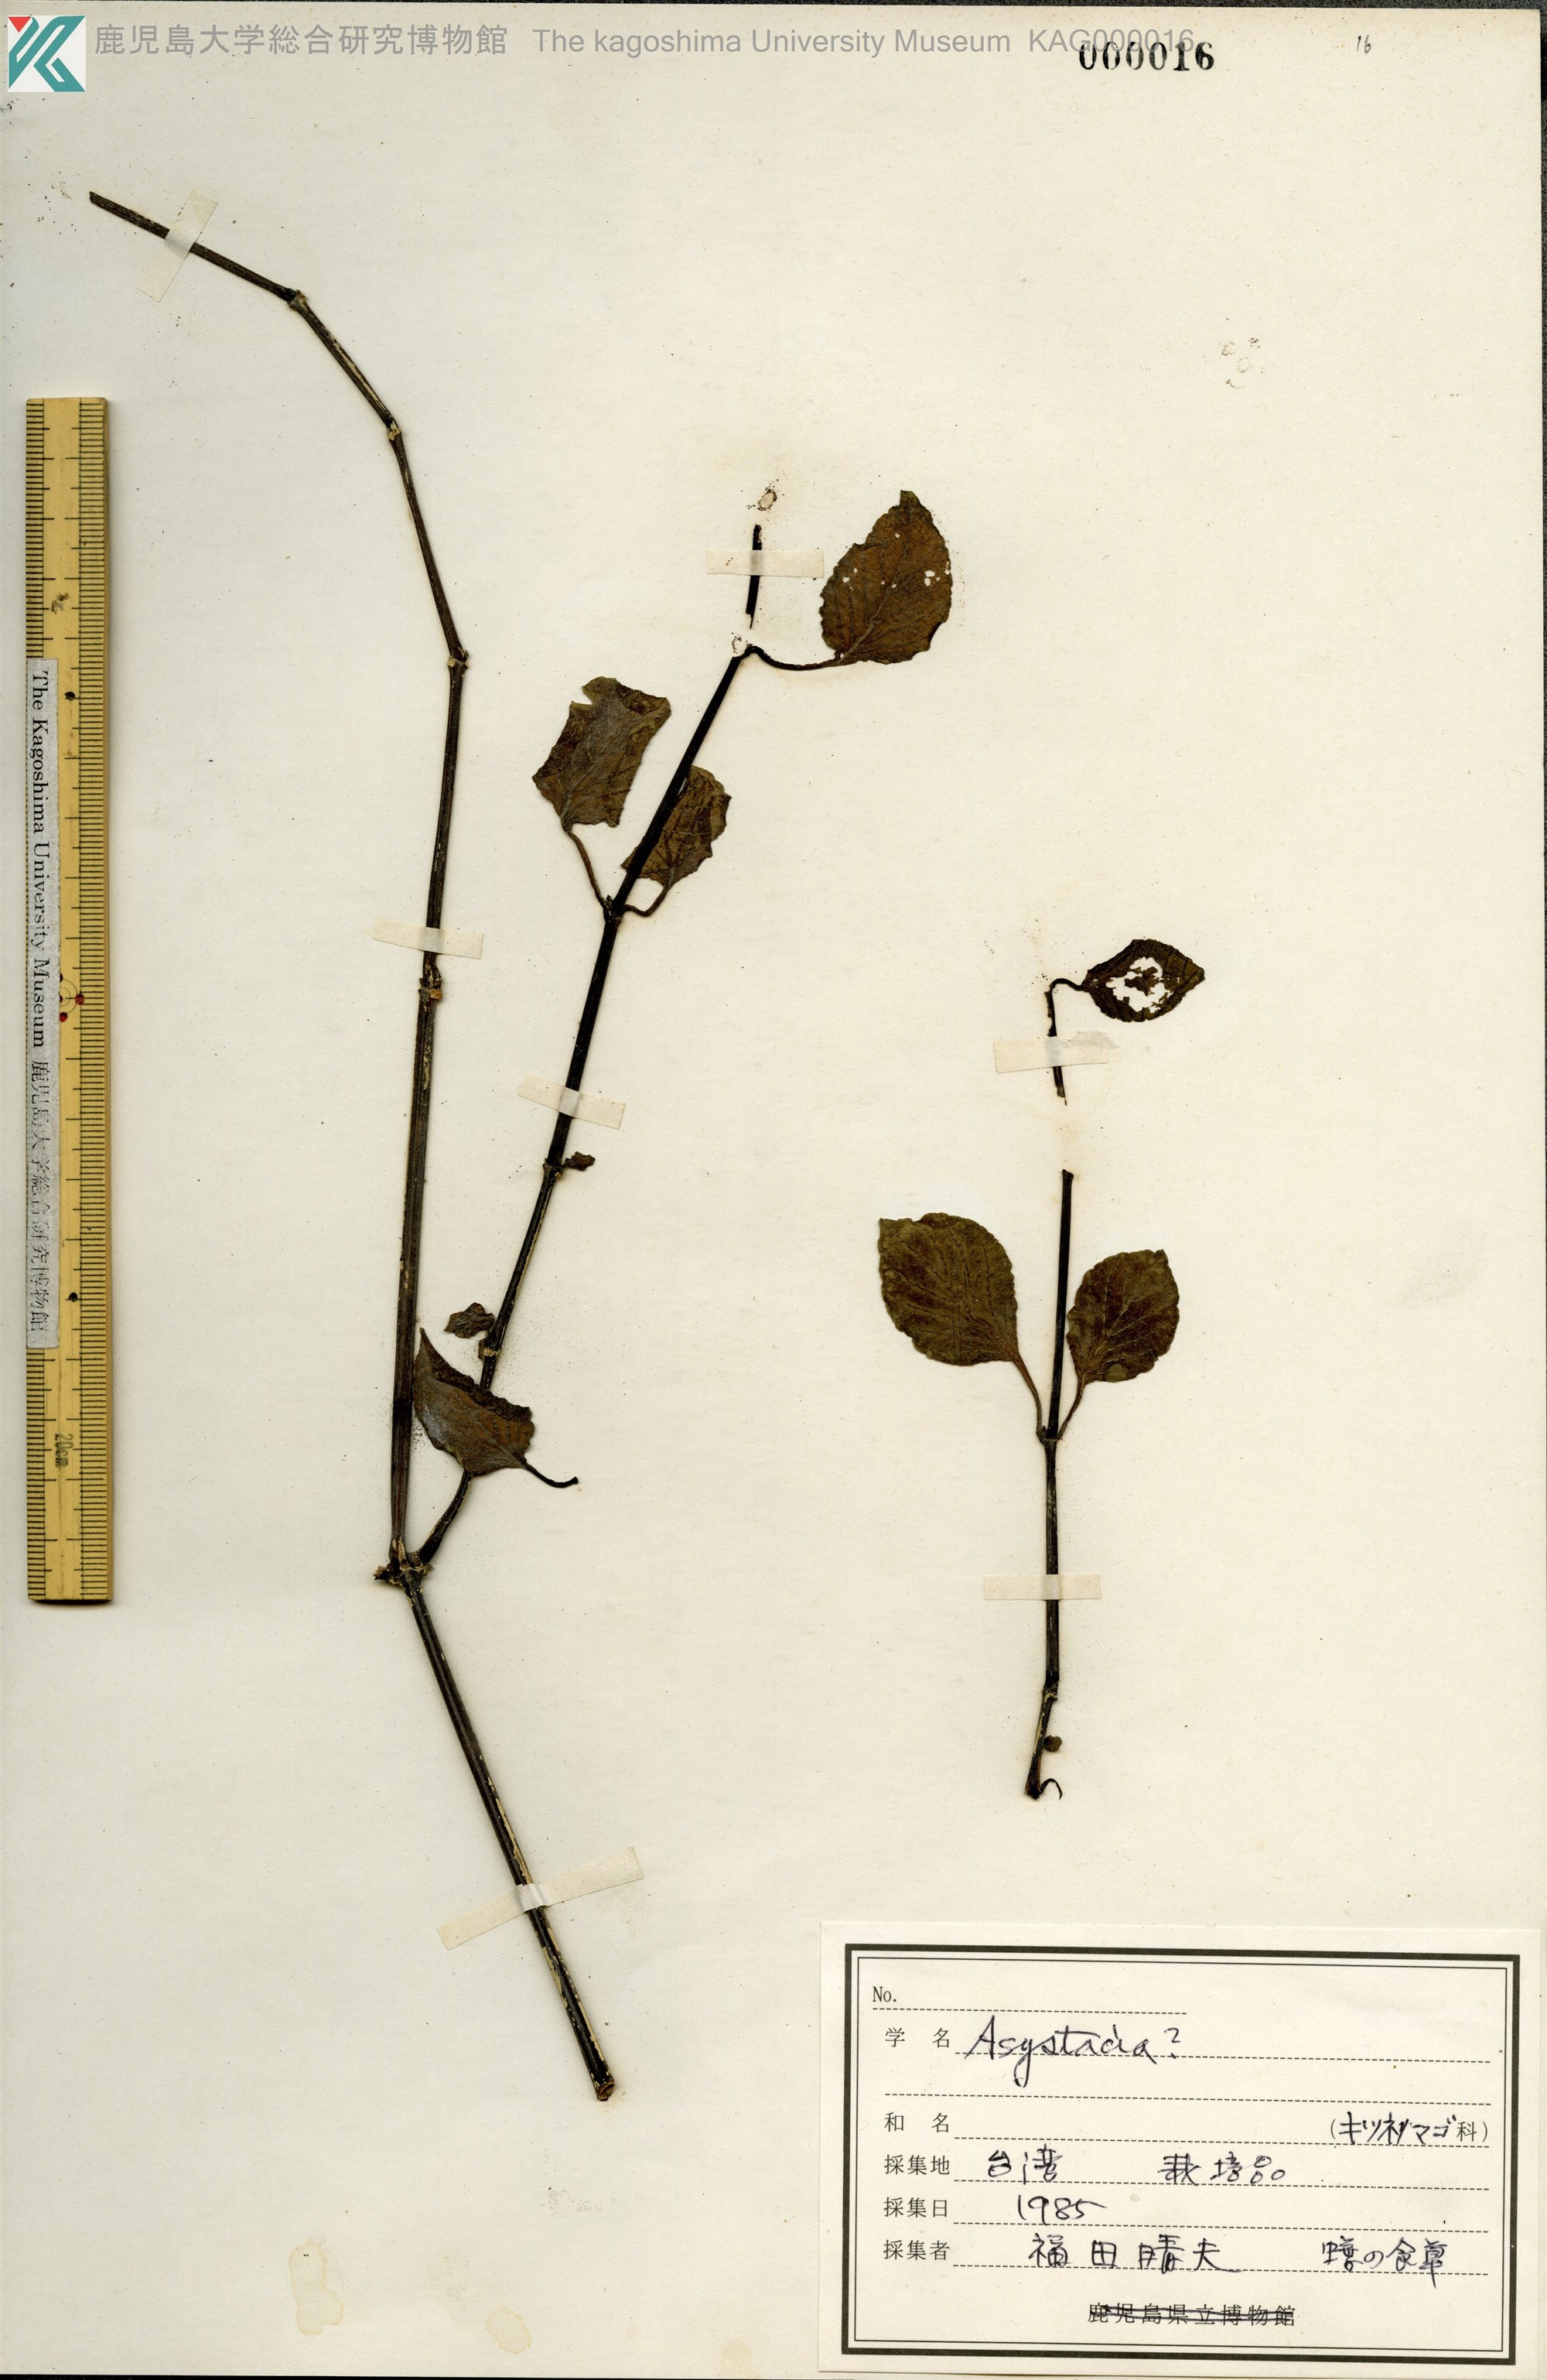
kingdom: Plantae
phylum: Tracheophyta
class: Magnoliopsida
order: Lamiales
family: Acanthaceae
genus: Asystasia
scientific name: Asystasia
